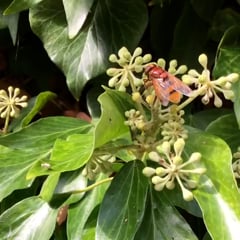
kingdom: Animalia
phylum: Arthropoda
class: Insecta
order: Diptera
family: Syrphidae
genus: Volucella
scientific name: Volucella zonaria
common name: Hornet hoverfly
